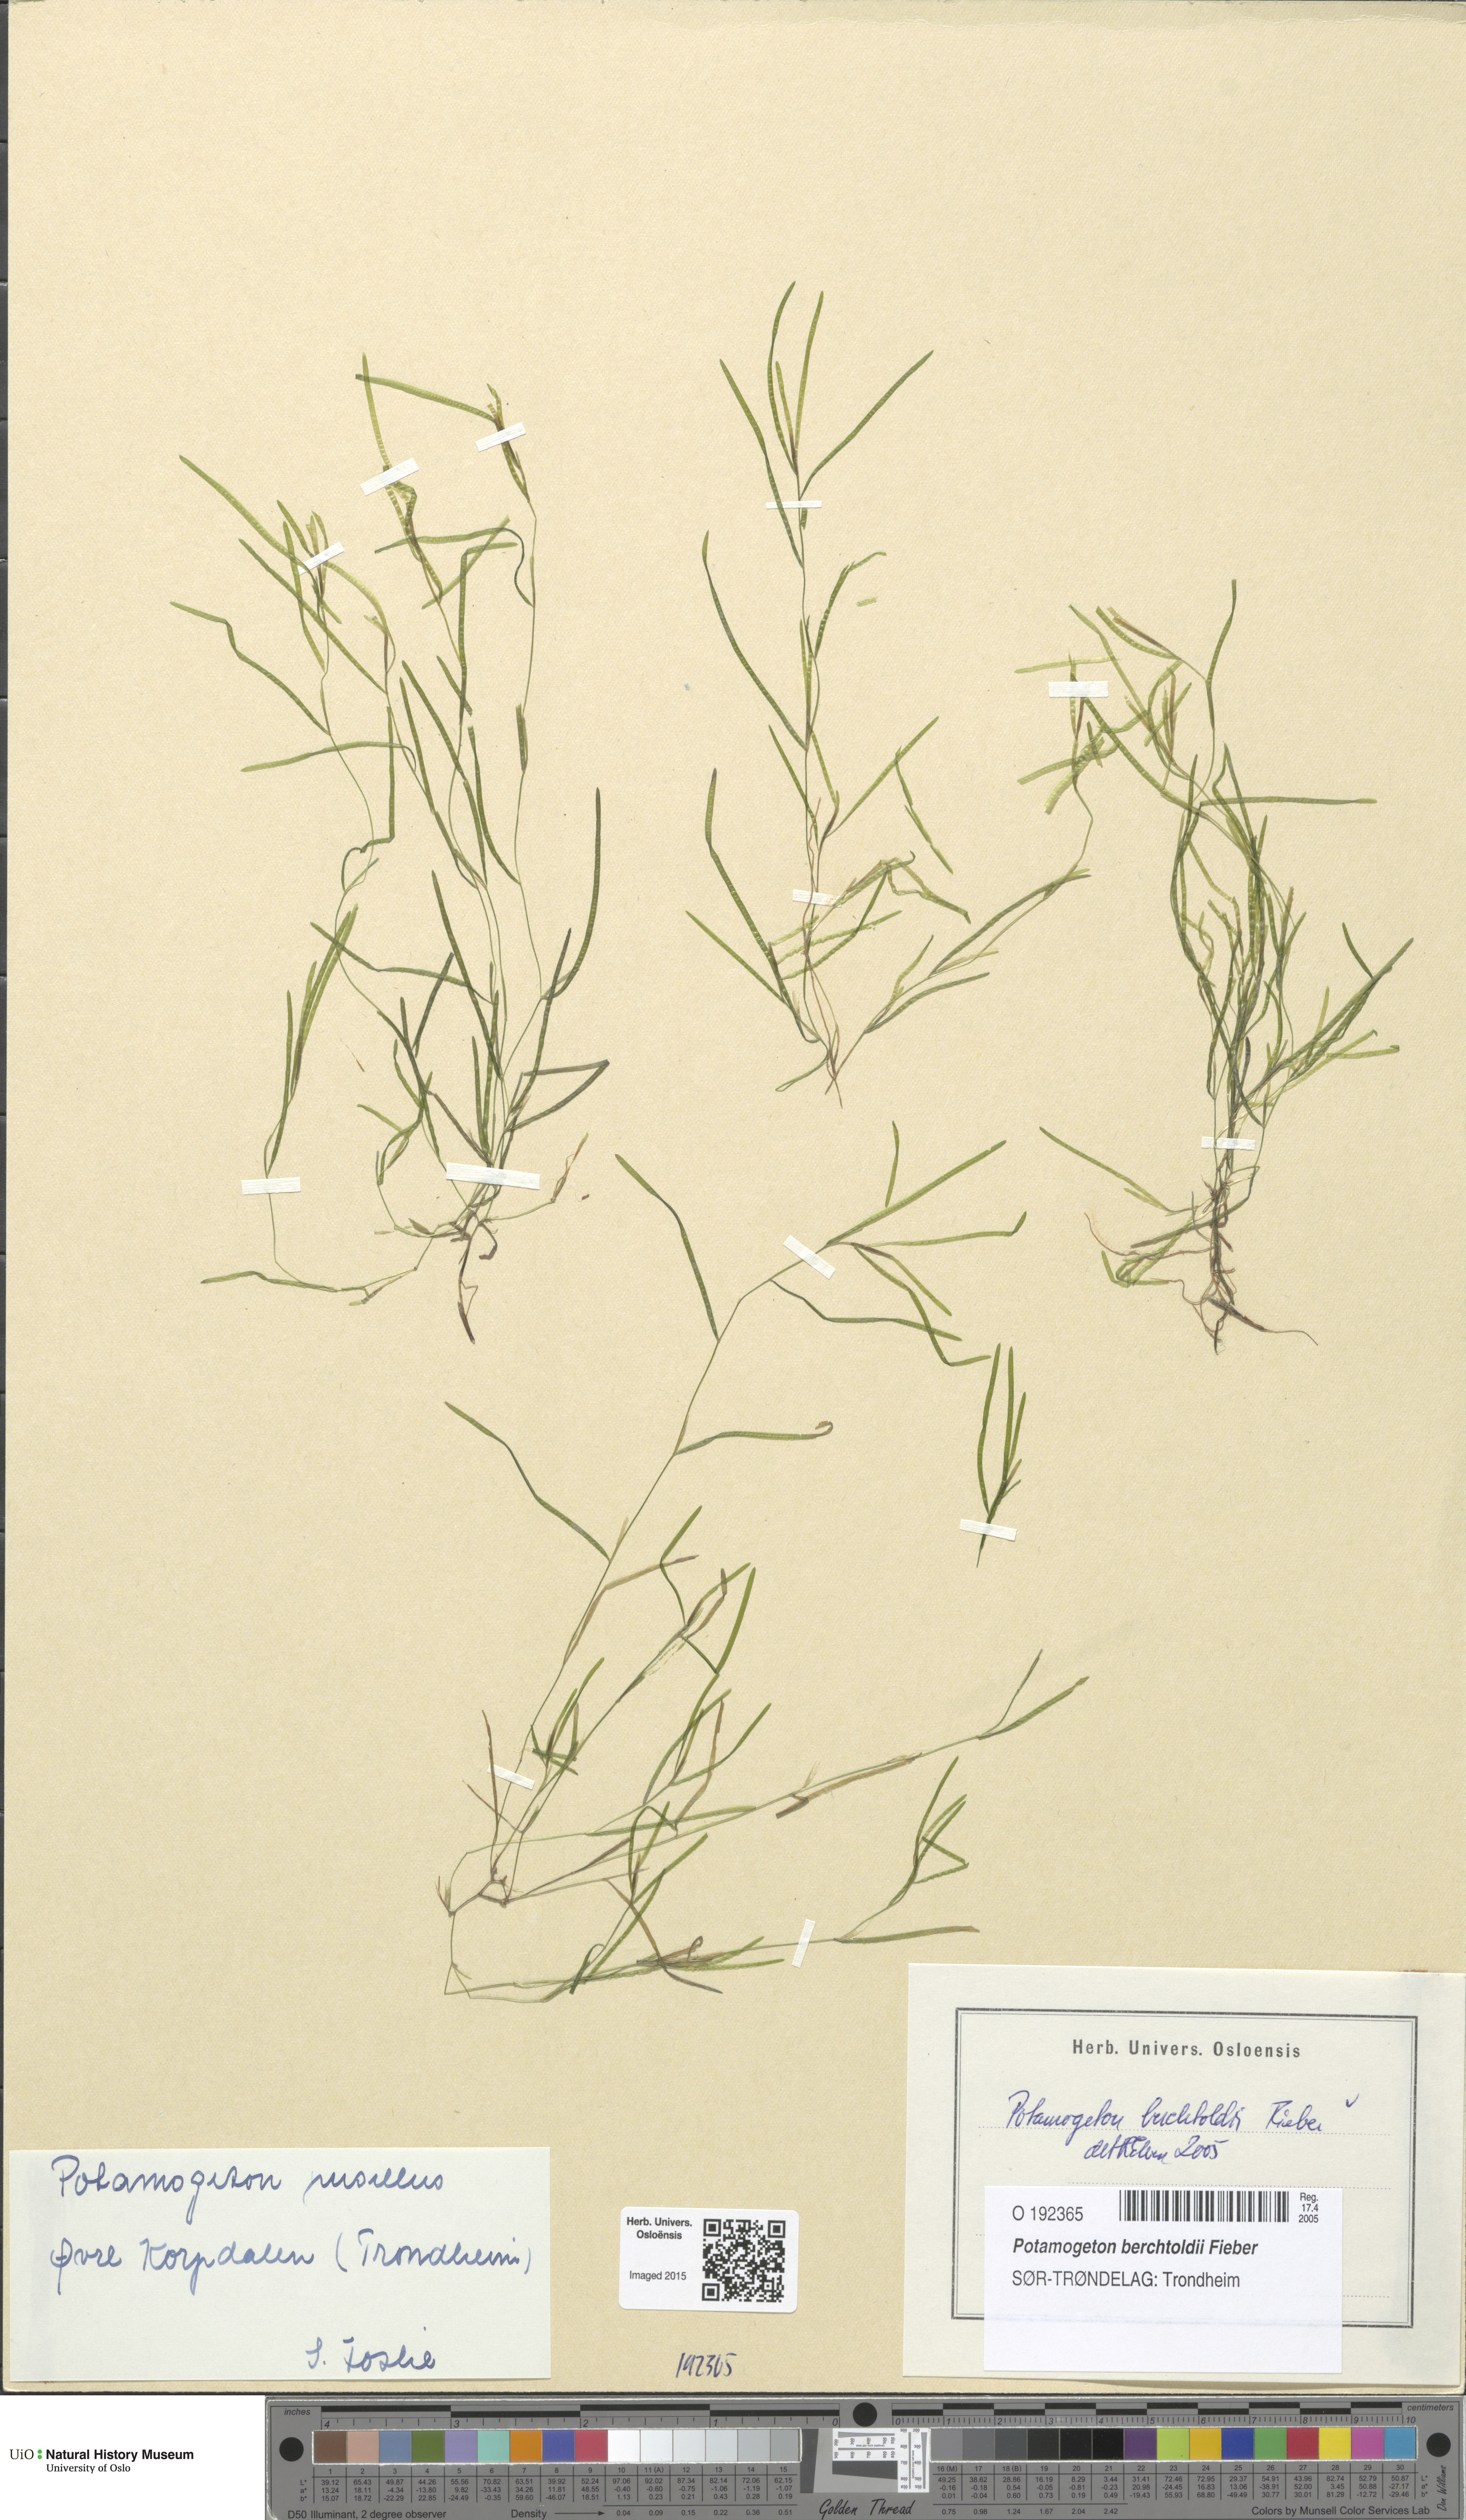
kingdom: Plantae
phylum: Tracheophyta
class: Liliopsida
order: Alismatales
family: Potamogetonaceae
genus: Potamogeton
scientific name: Potamogeton berchtoldii
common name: Small pondweed
